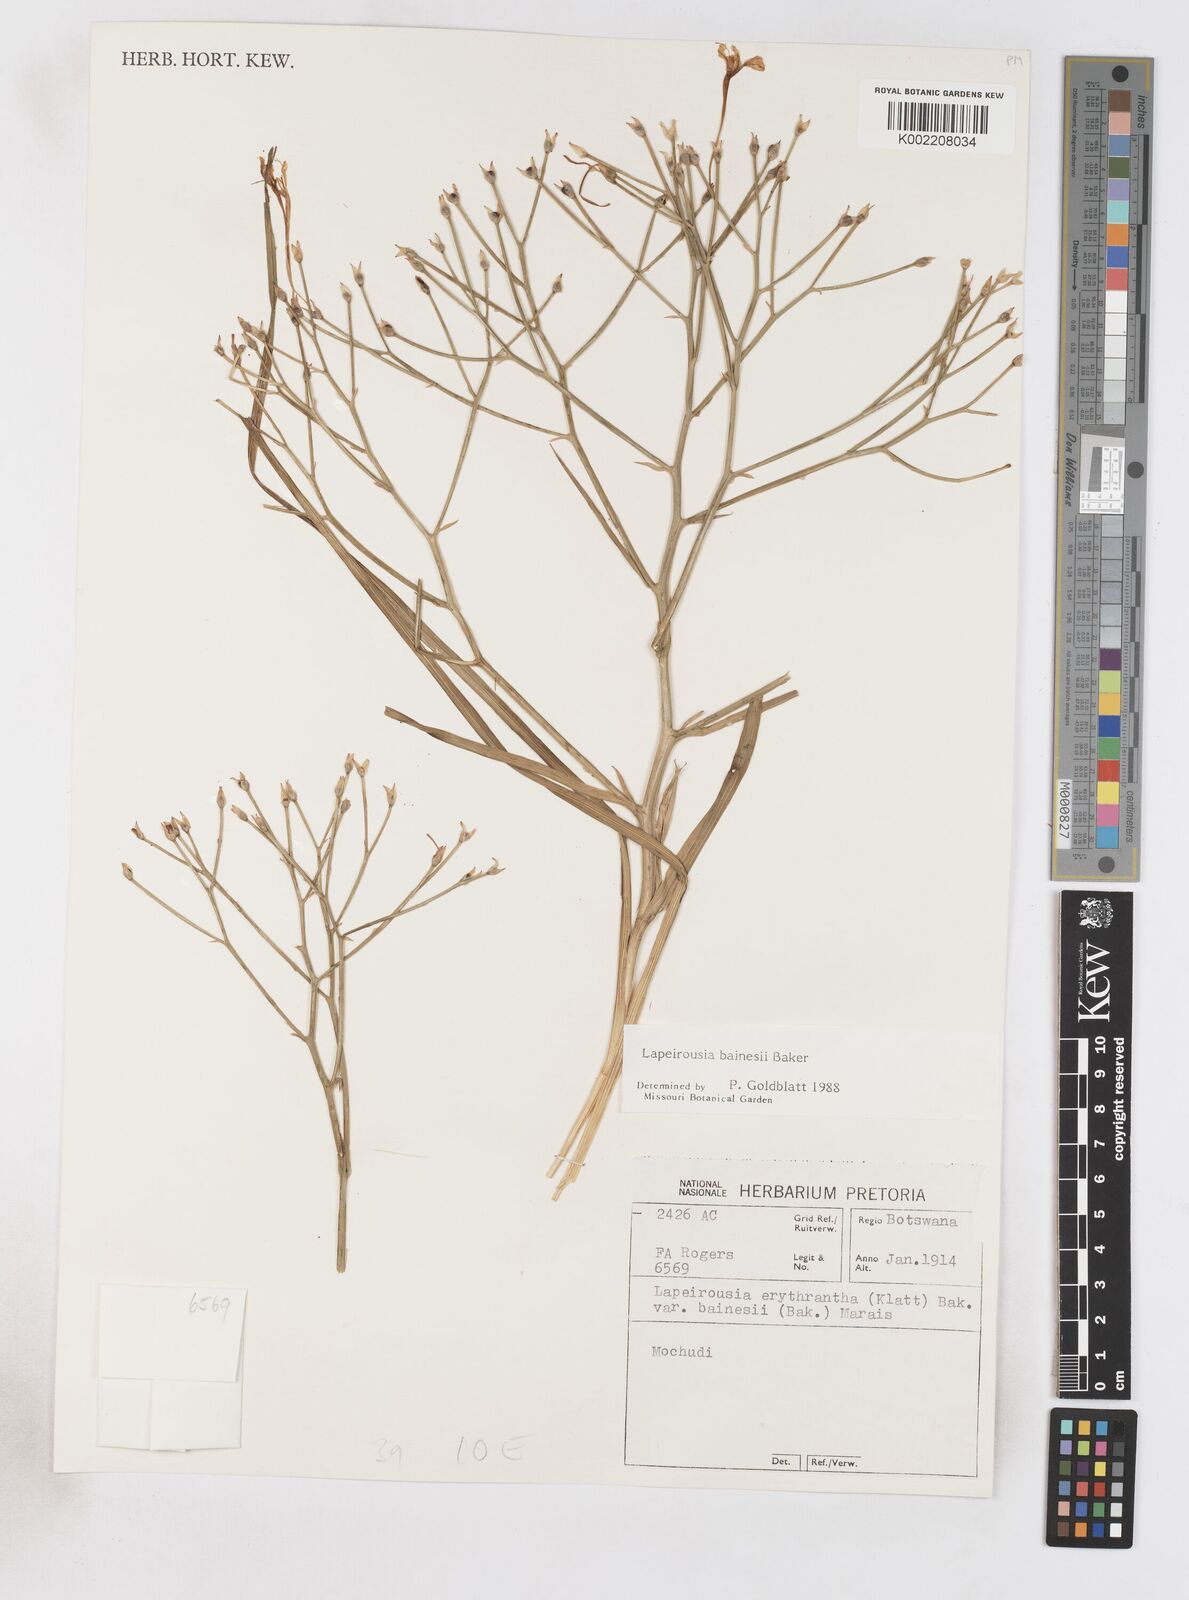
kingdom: Plantae
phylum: Tracheophyta
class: Liliopsida
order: Asparagales
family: Iridaceae
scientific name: Iridaceae
